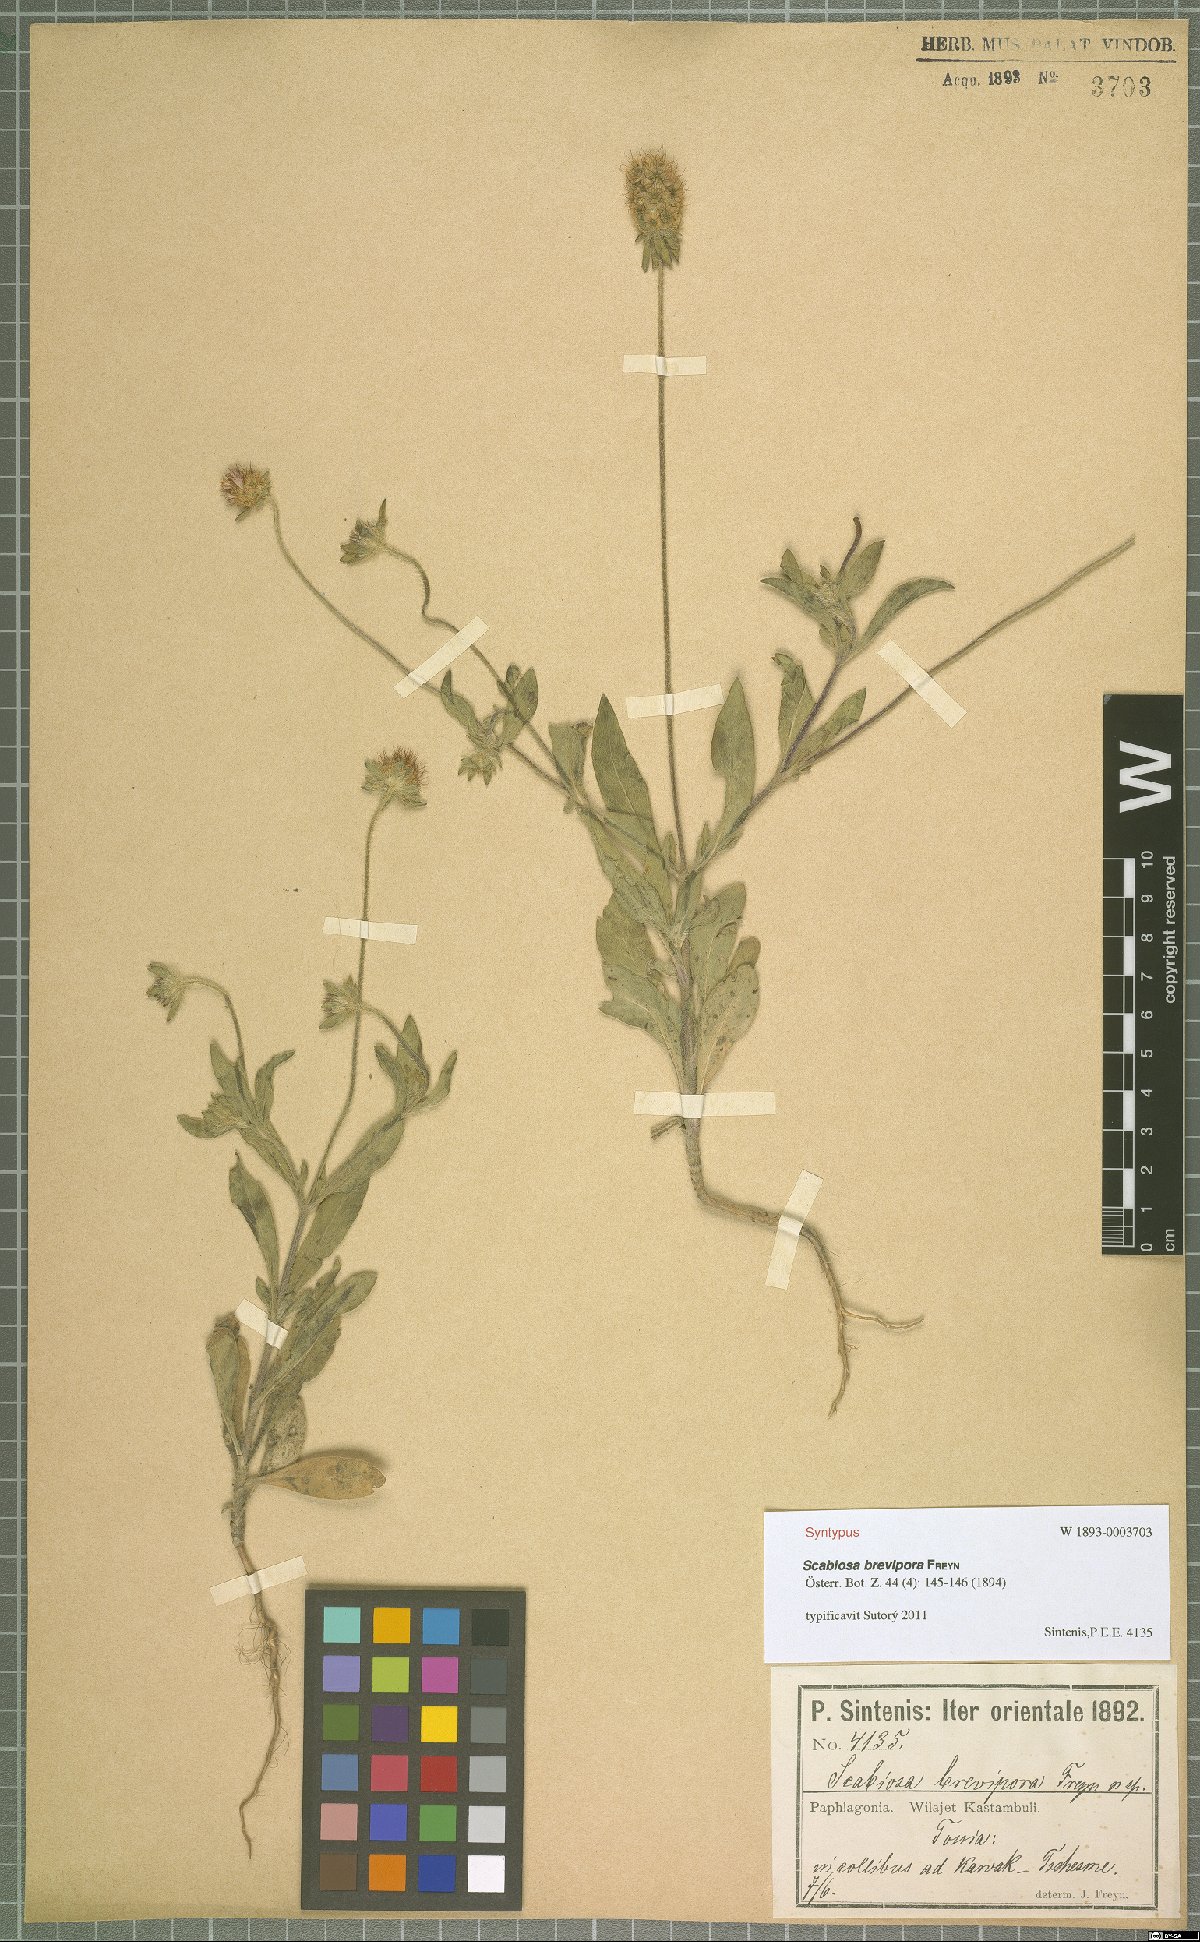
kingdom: Plantae
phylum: Tracheophyta
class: Magnoliopsida
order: Dipsacales
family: Caprifoliaceae
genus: Lomelosia
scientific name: Lomelosia micrantha
